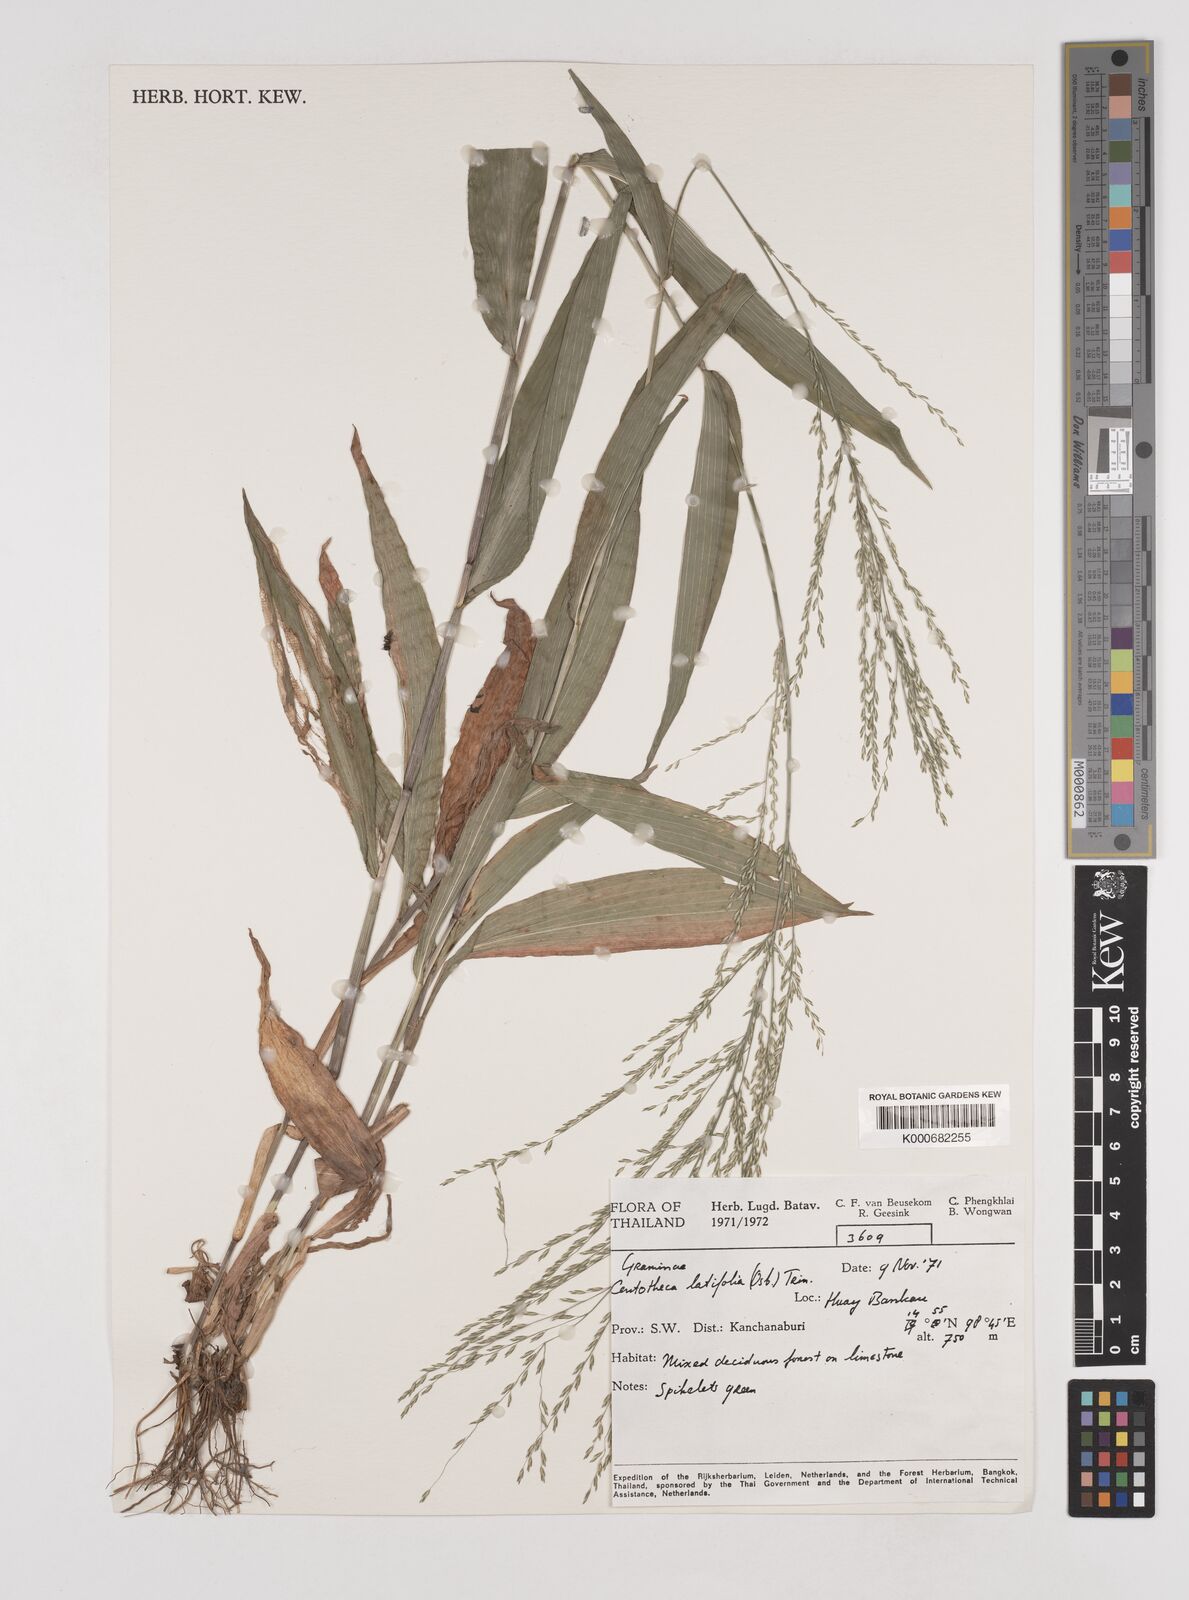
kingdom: Plantae
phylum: Tracheophyta
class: Liliopsida
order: Poales
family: Poaceae
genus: Centotheca
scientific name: Centotheca lappacea
